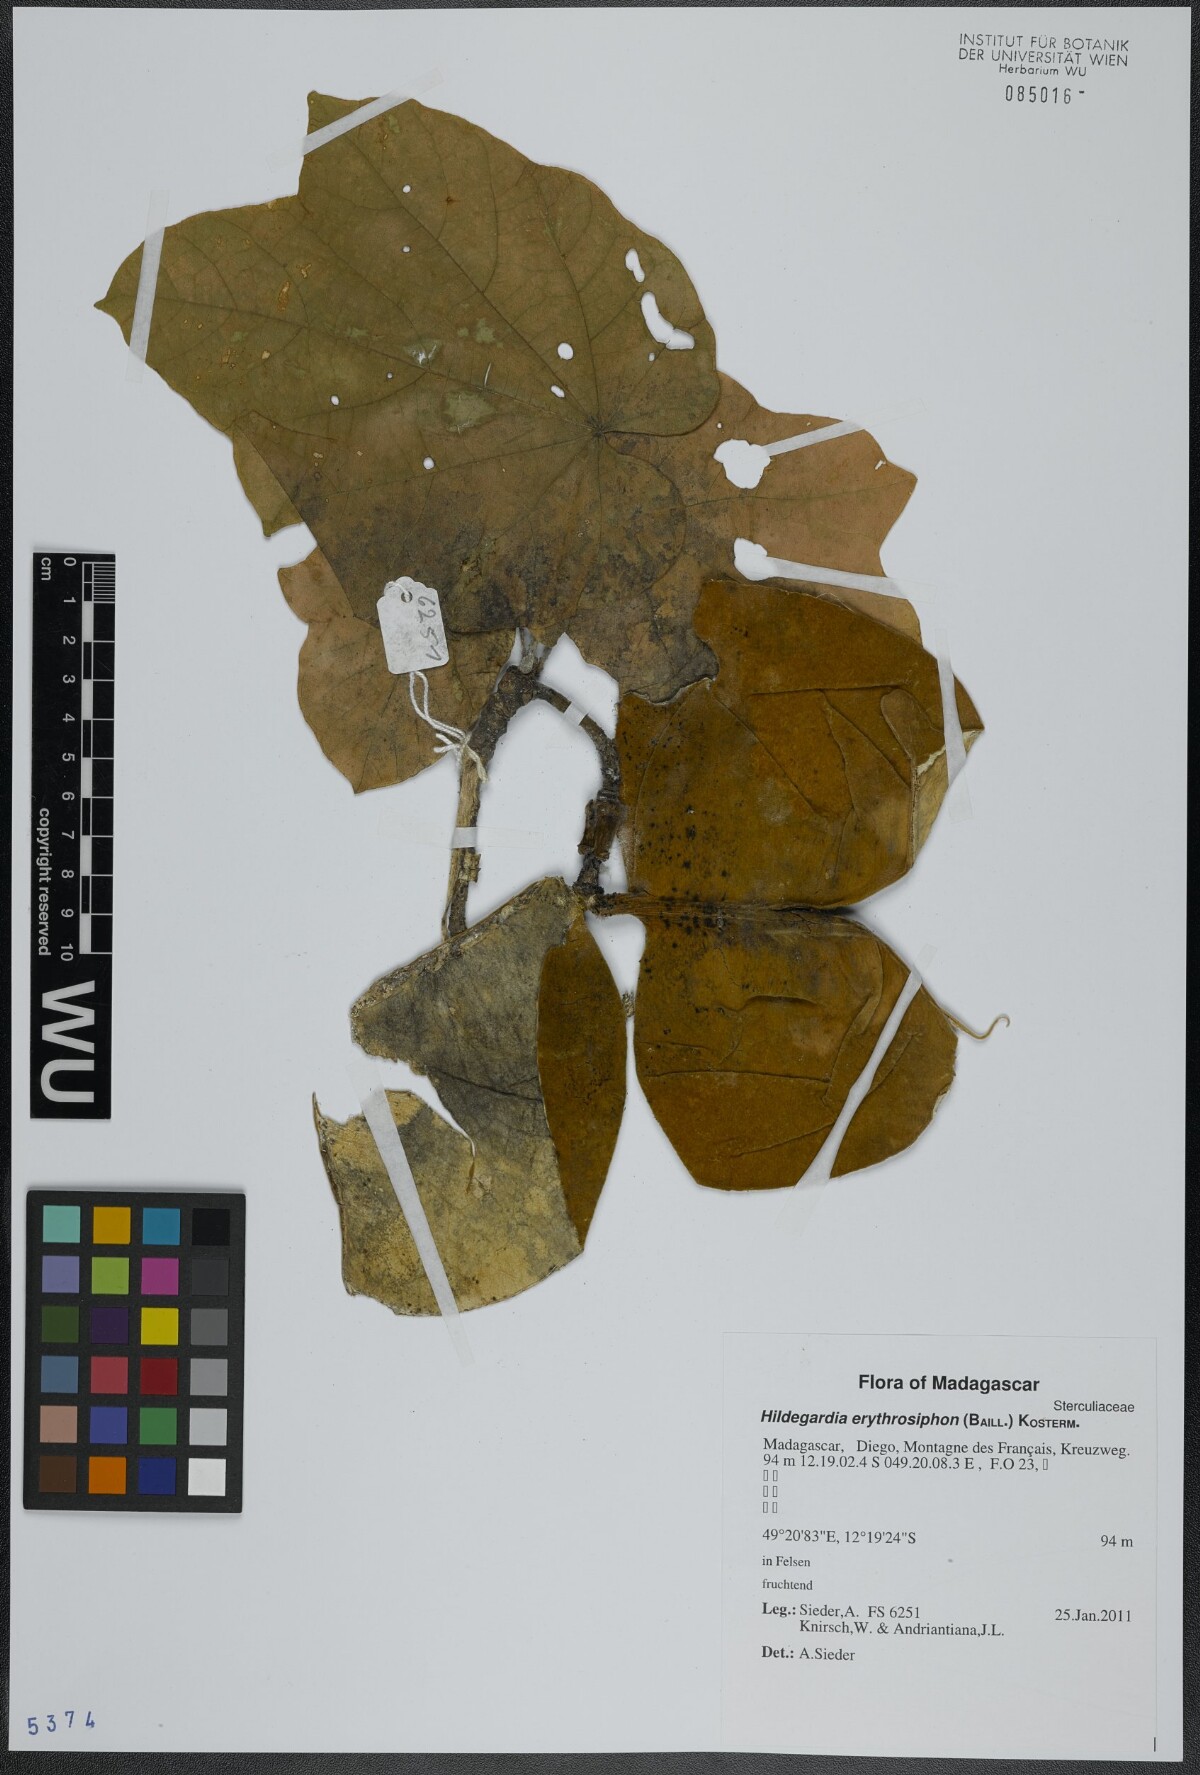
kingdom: Plantae
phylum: Tracheophyta
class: Magnoliopsida
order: Malvales
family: Malvaceae
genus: Hildegardia
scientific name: Hildegardia erythrosiphon
